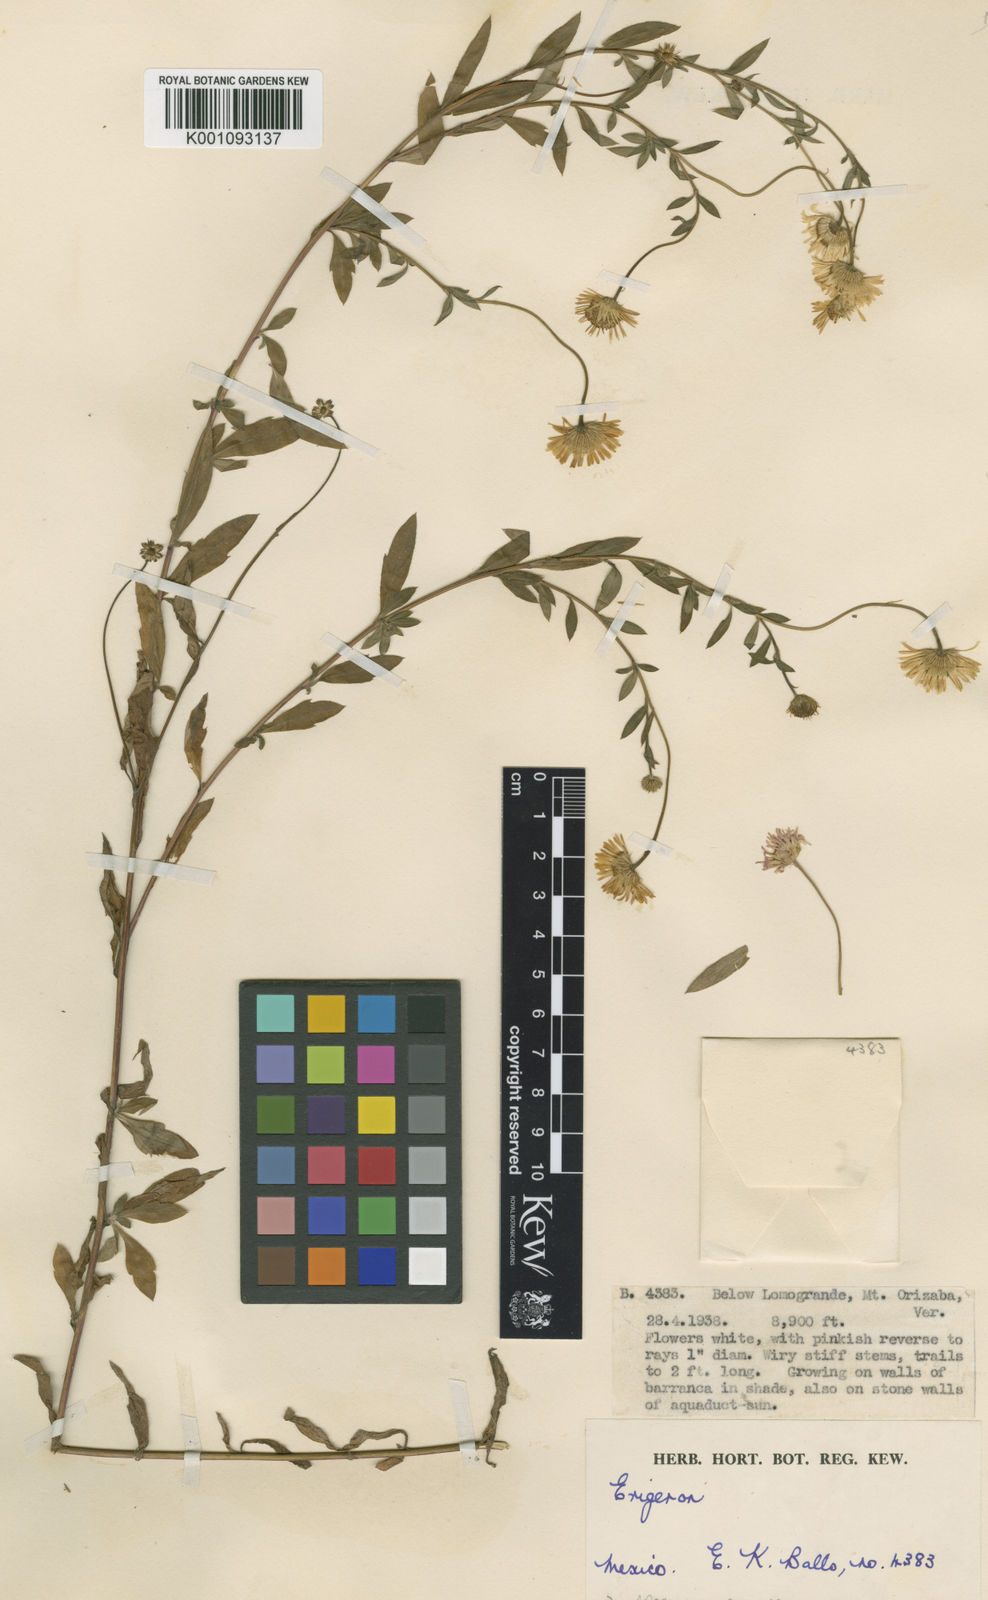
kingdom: Plantae
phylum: Tracheophyta
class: Magnoliopsida
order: Asterales
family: Asteraceae
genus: Erigeron
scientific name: Erigeron
